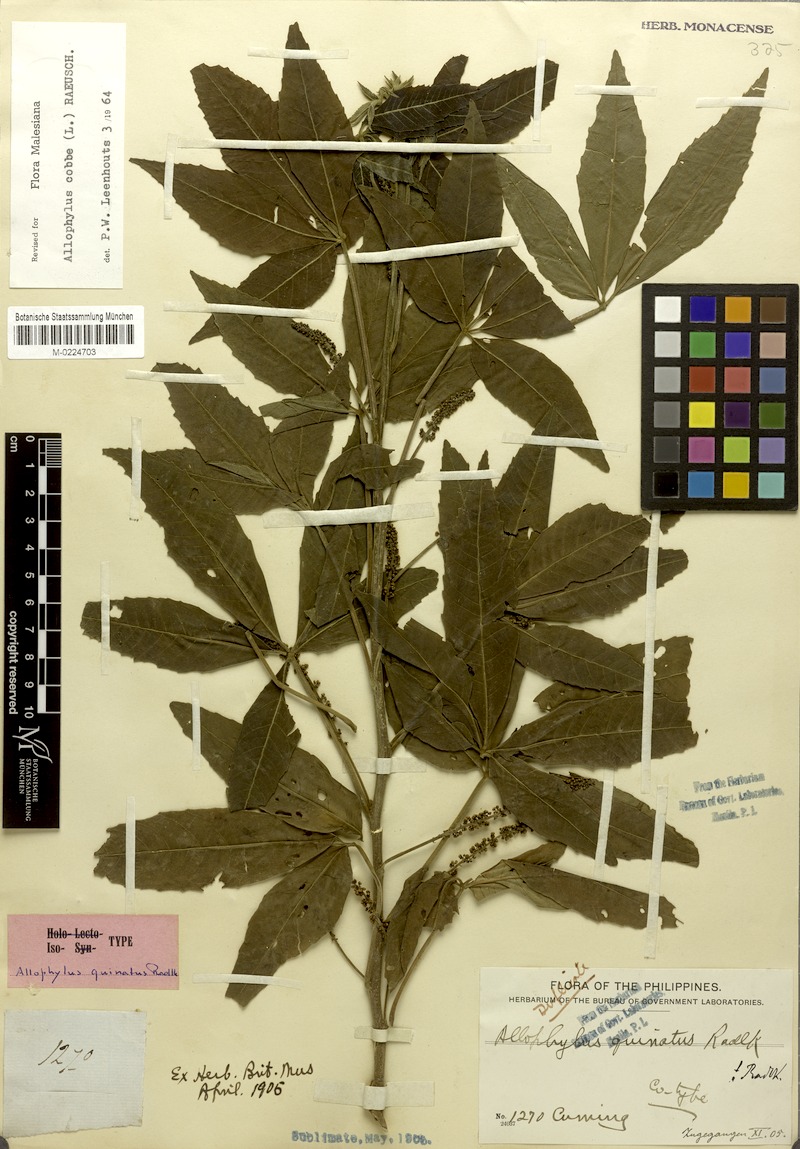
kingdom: Plantae
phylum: Tracheophyta
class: Magnoliopsida
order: Sapindales
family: Sapindaceae
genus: Allophylus
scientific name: Allophylus quinatus
